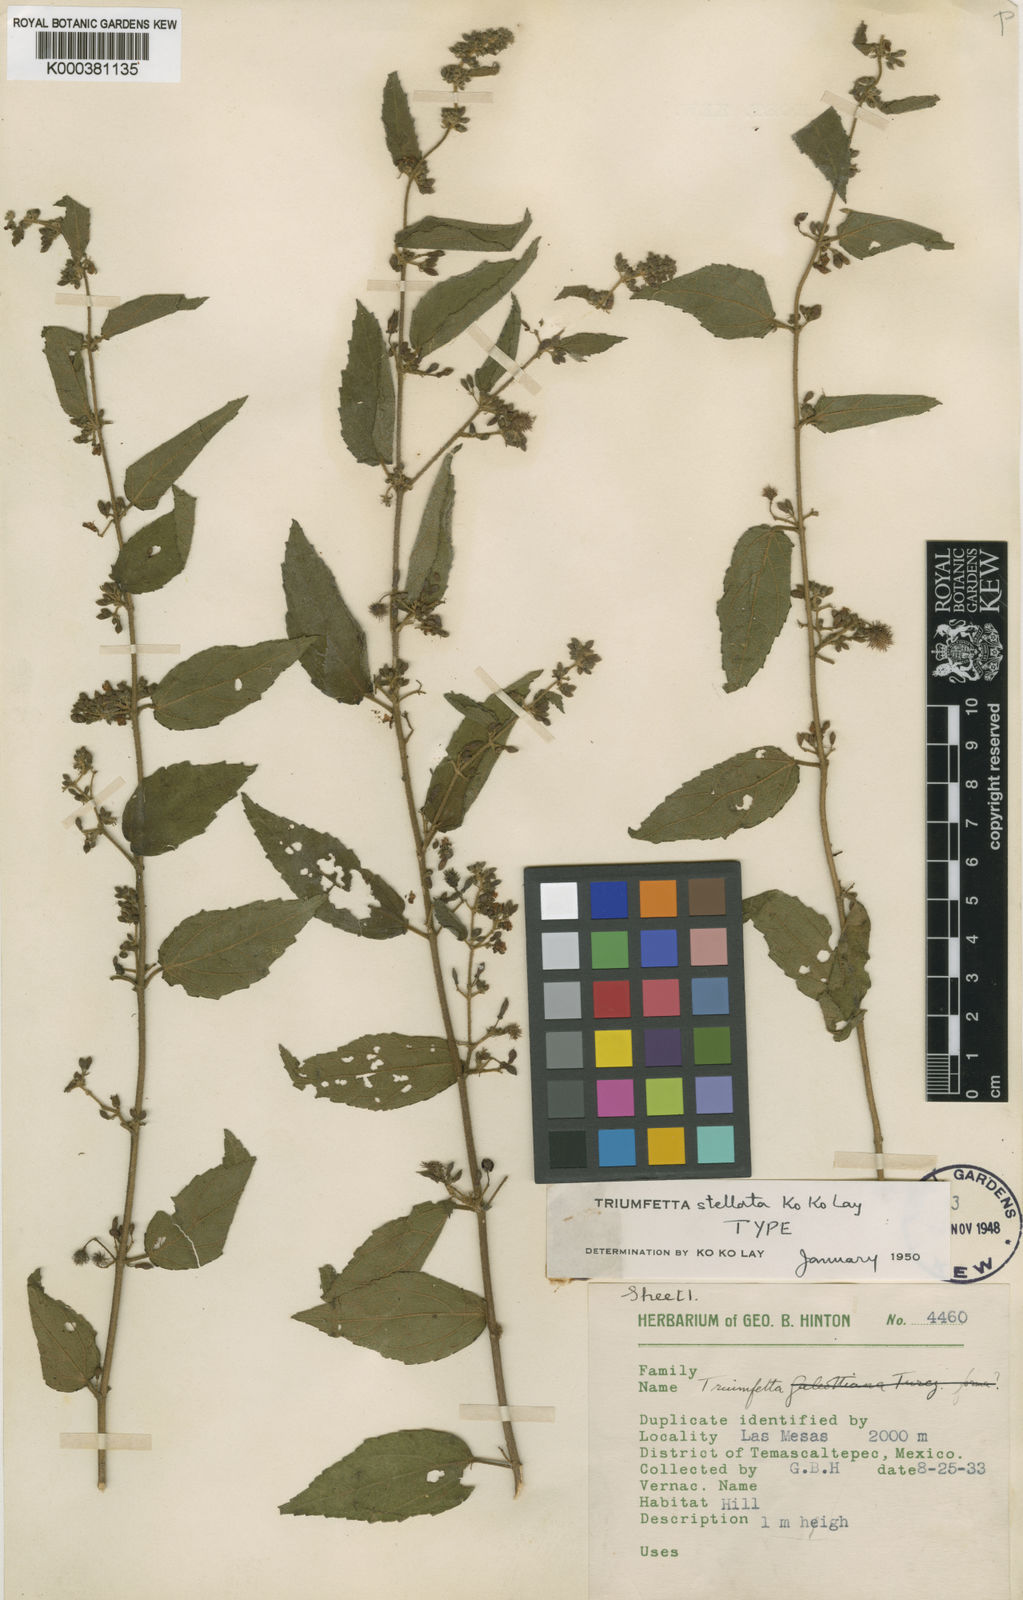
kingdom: Plantae
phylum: Tracheophyta
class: Magnoliopsida
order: Malvales
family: Malvaceae
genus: Triumfetta
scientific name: Triumfetta stellata
